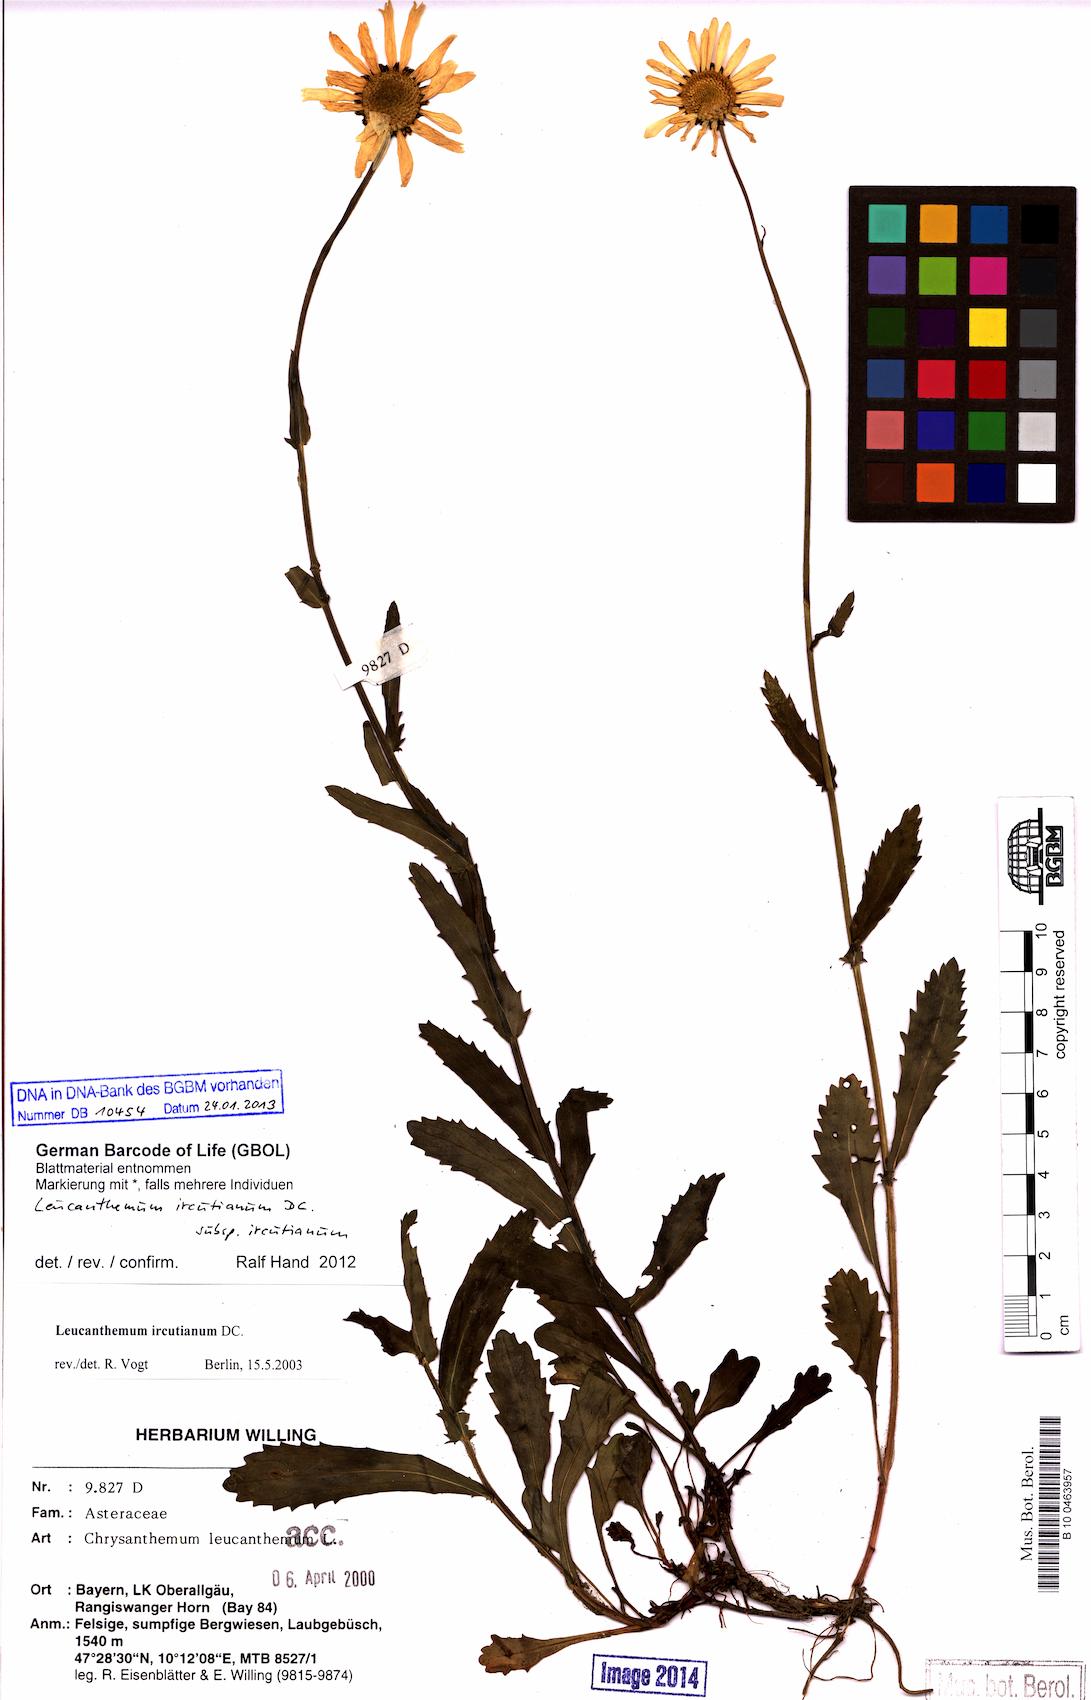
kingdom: Plantae
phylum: Tracheophyta
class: Magnoliopsida
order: Asterales
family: Asteraceae
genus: Leucanthemum
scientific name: Leucanthemum ircutianum
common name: Daisy
